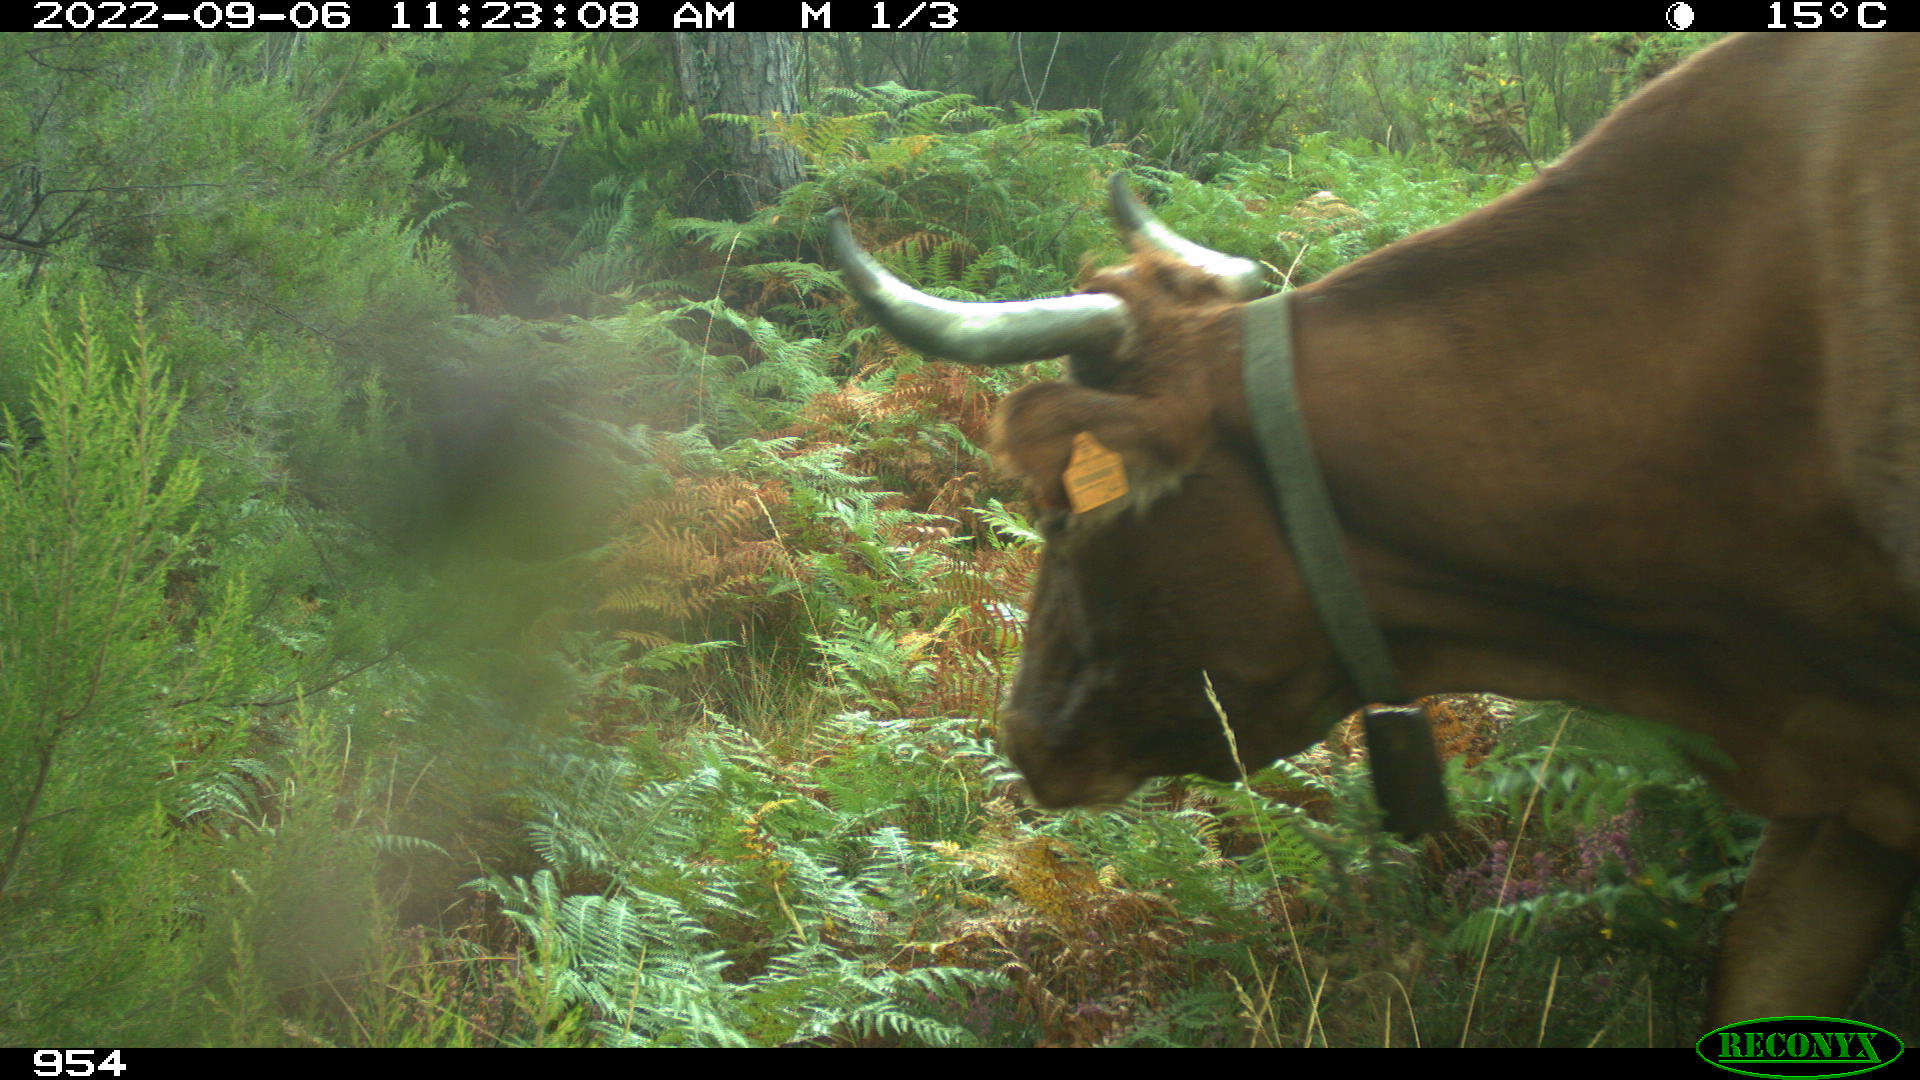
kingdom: Animalia
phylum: Chordata
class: Mammalia
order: Artiodactyla
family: Bovidae
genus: Bos
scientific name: Bos taurus
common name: Domesticated cattle
